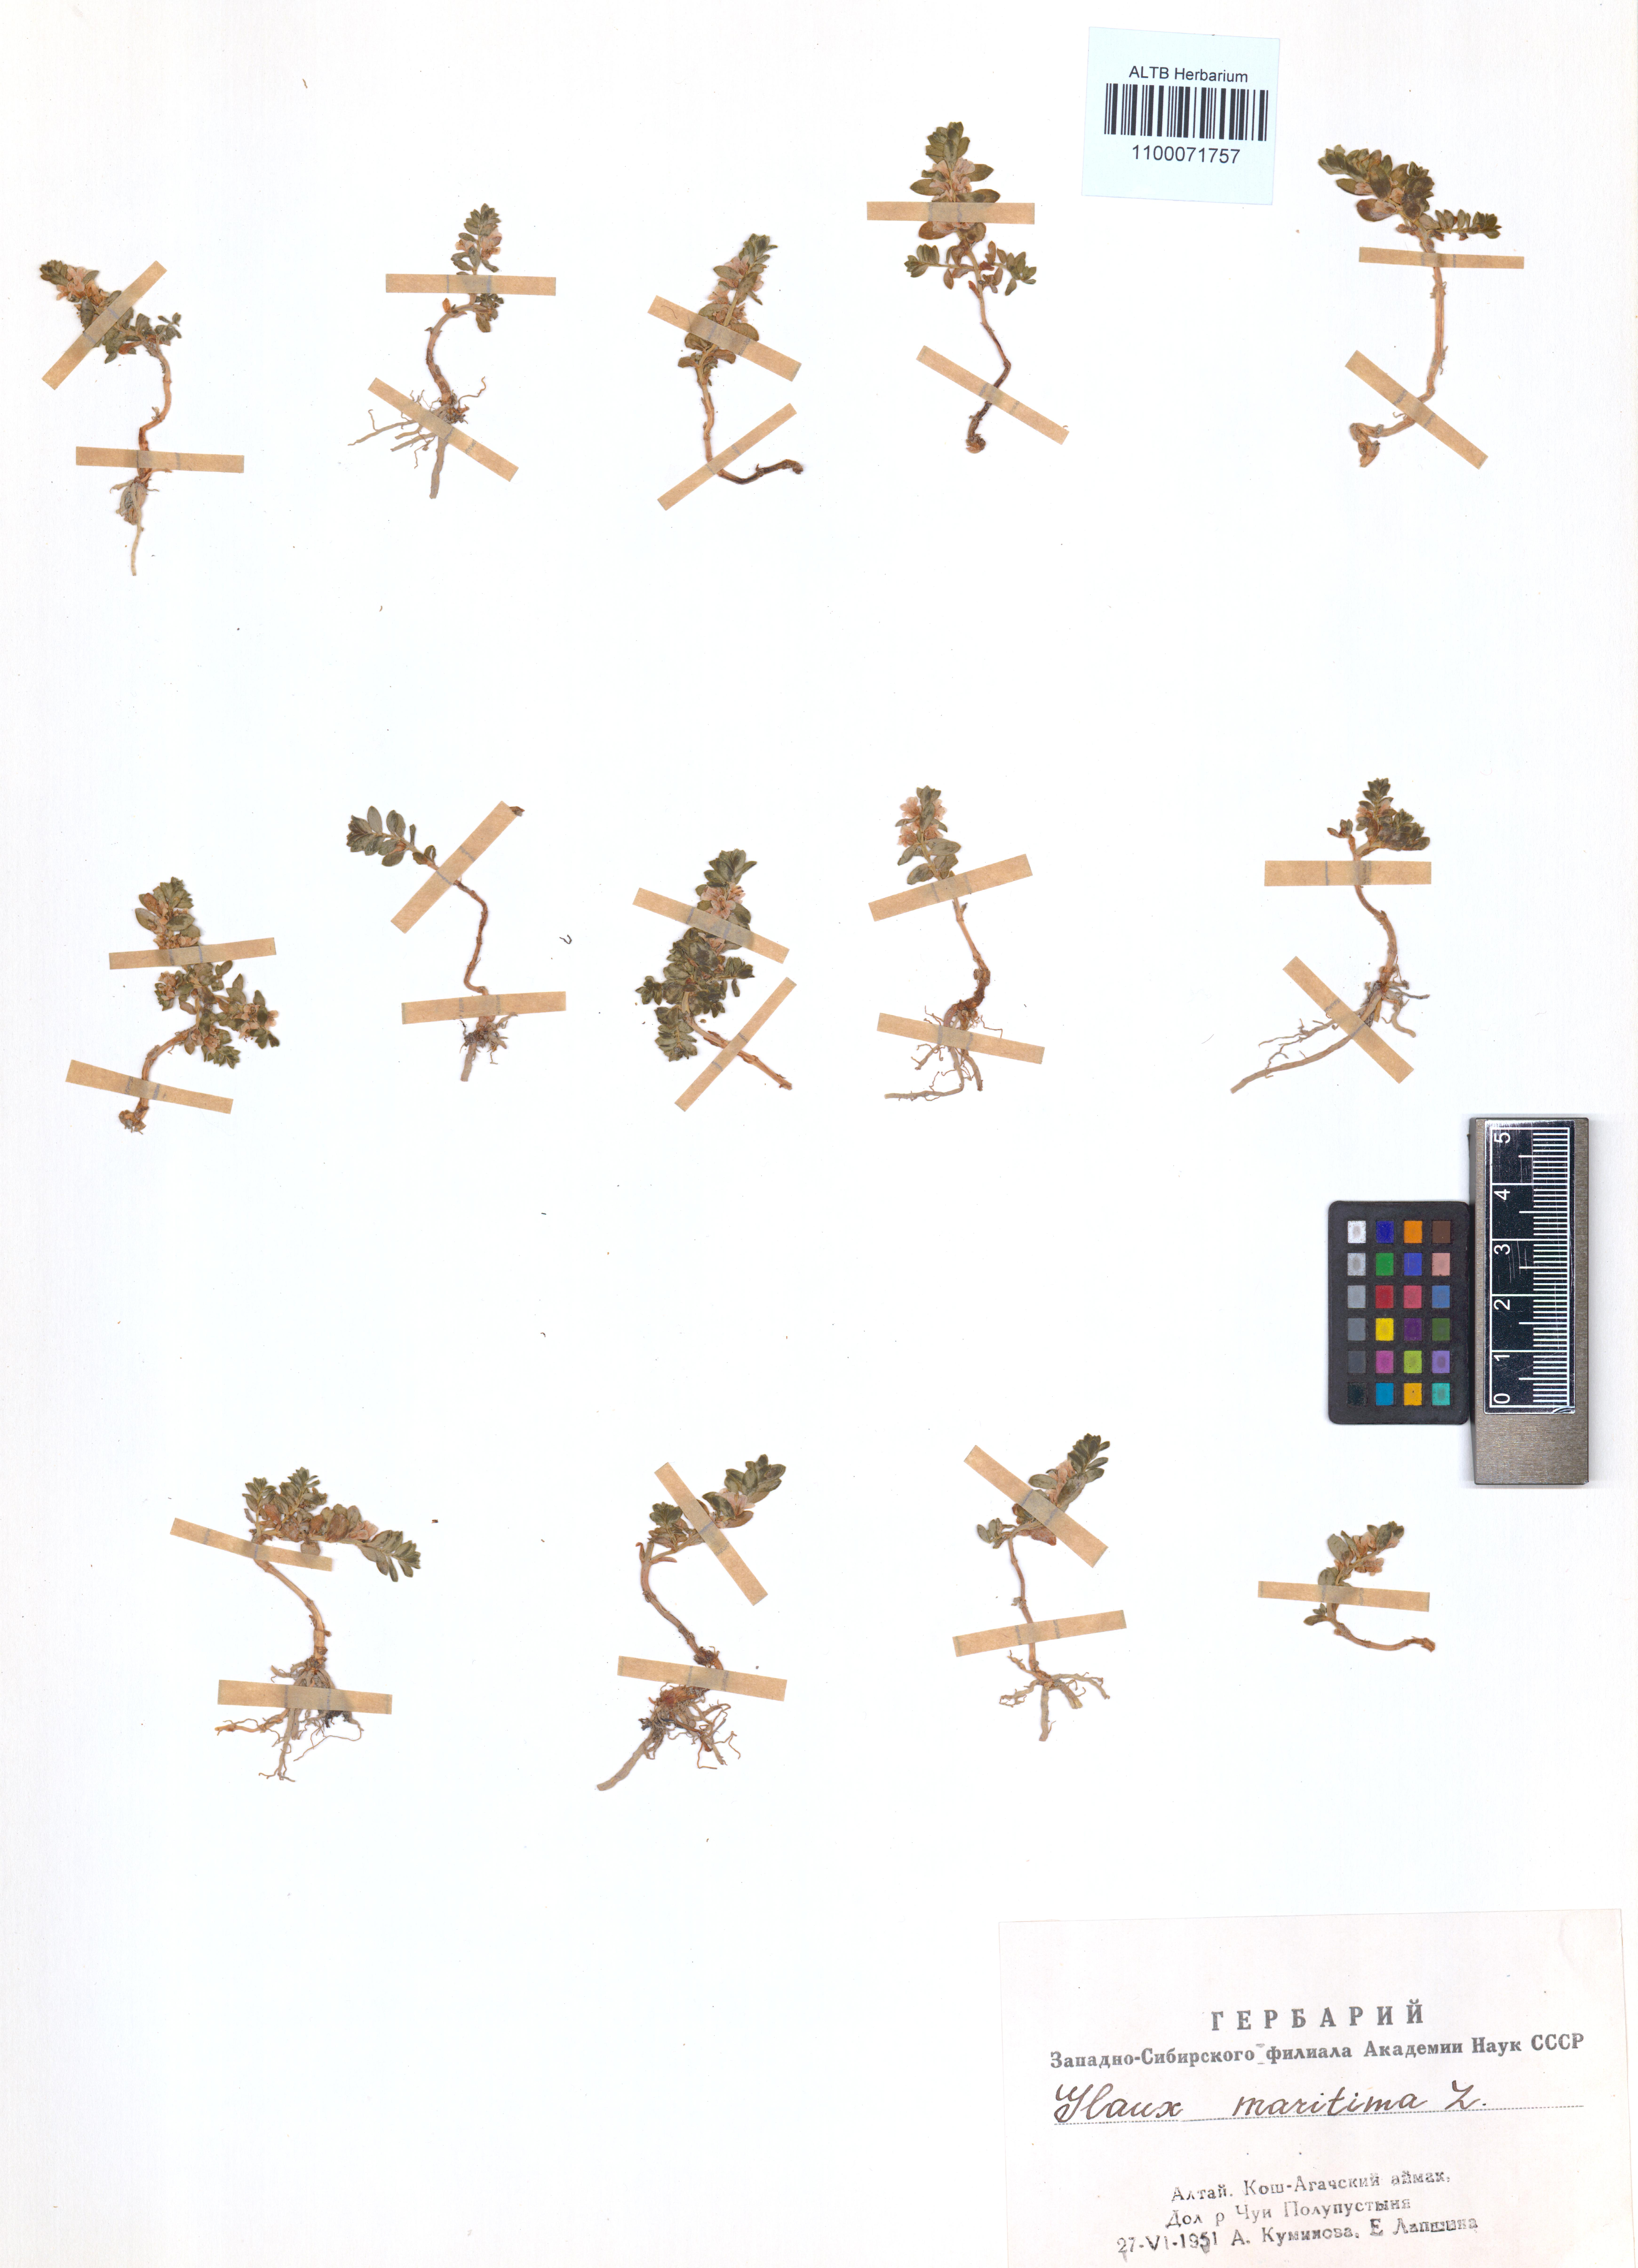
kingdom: Plantae
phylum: Tracheophyta
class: Magnoliopsida
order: Ericales
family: Primulaceae
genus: Lysimachia
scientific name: Lysimachia maritima
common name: Sea milkwort
